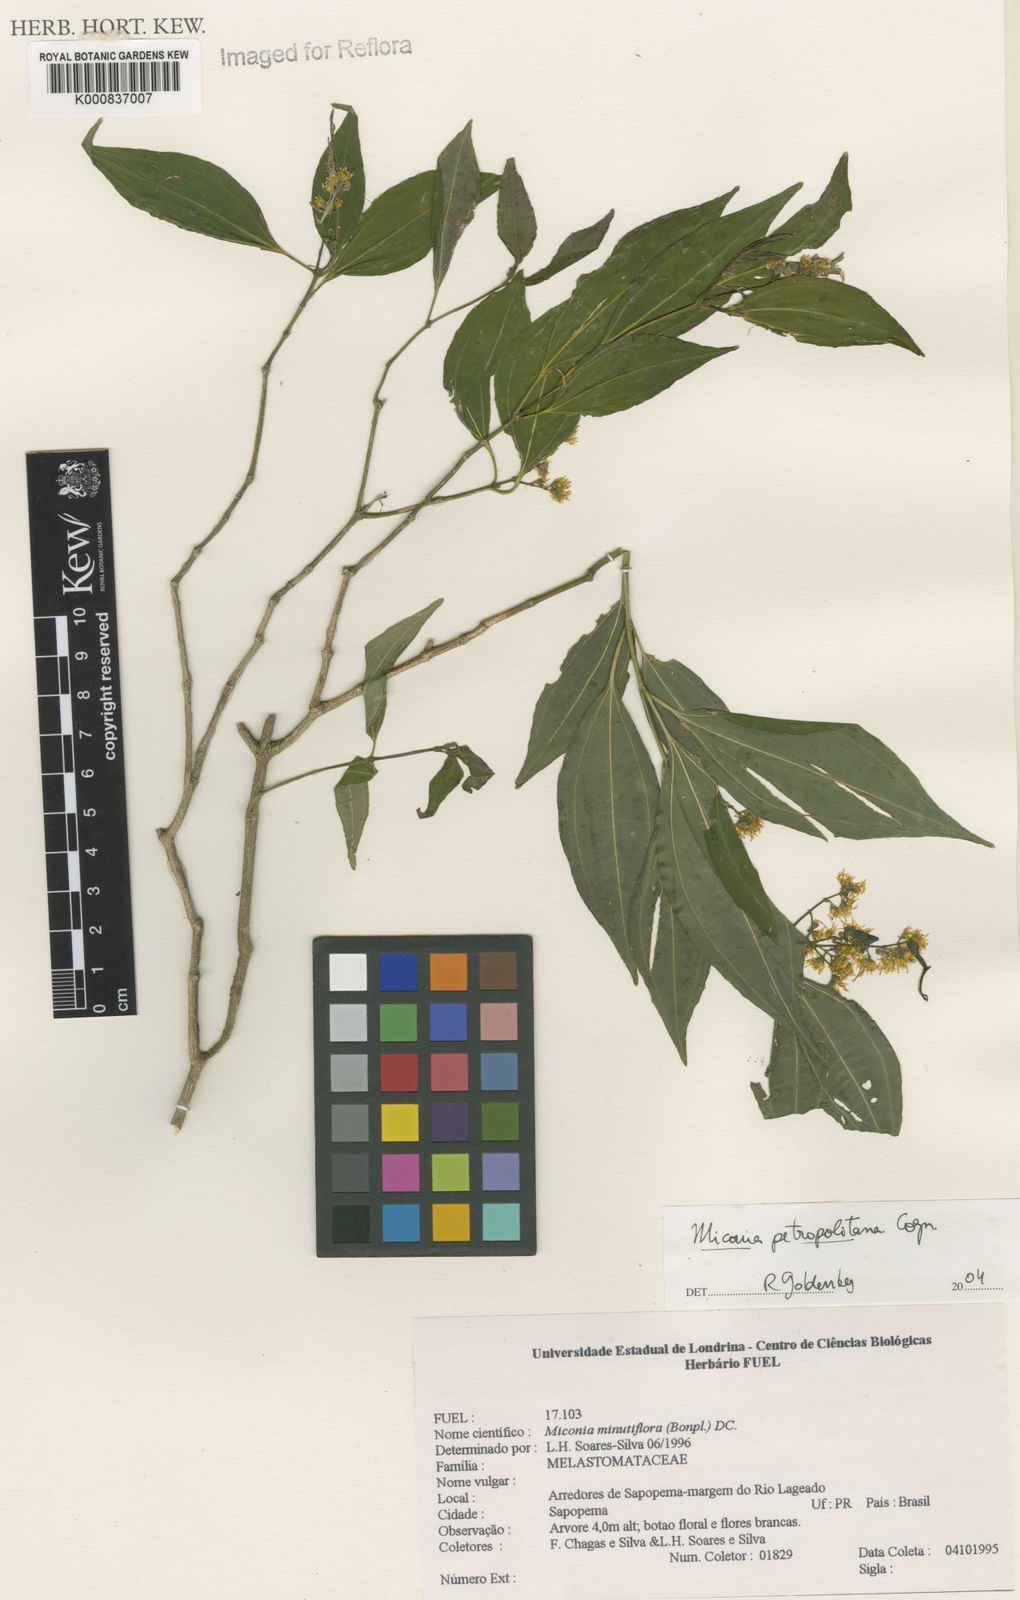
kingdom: Plantae
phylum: Tracheophyta
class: Magnoliopsida
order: Myrtales
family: Melastomataceae
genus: Miconia
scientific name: Miconia petropolitana
